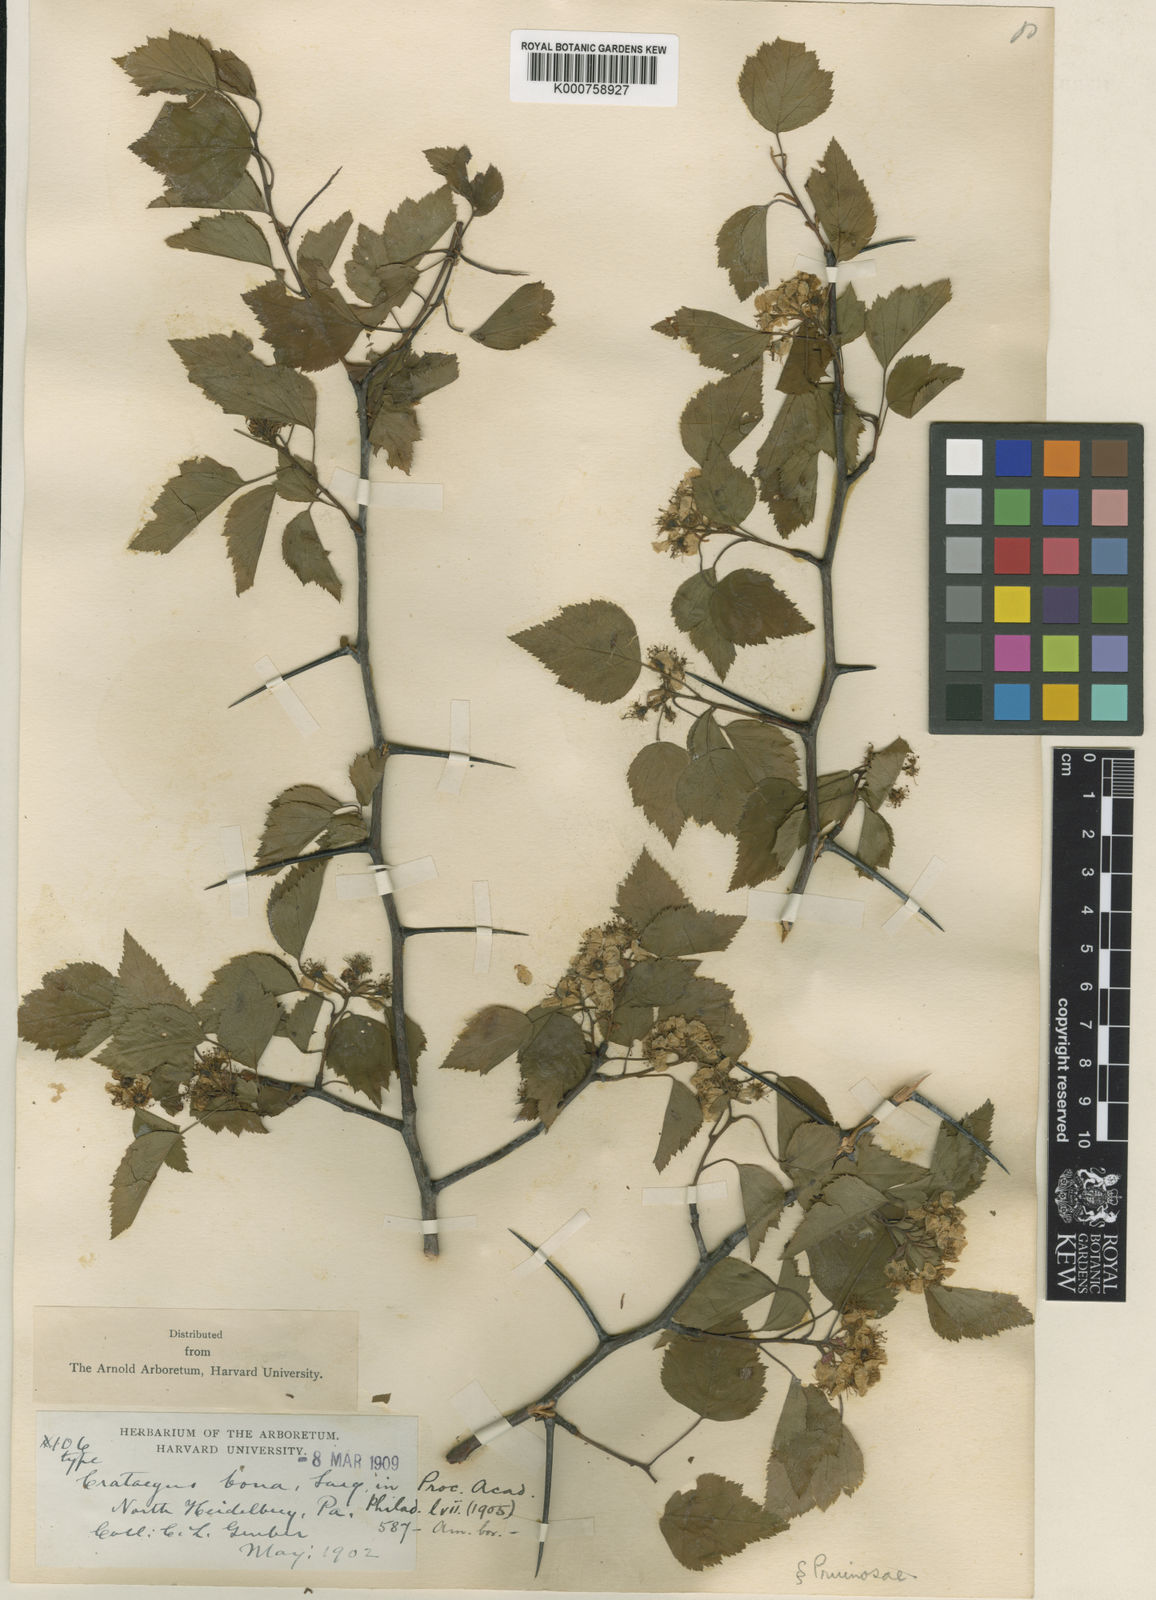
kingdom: Plantae
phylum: Tracheophyta
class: Magnoliopsida
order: Rosales
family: Rosaceae
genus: Crataegus
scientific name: Crataegus gattingeri
